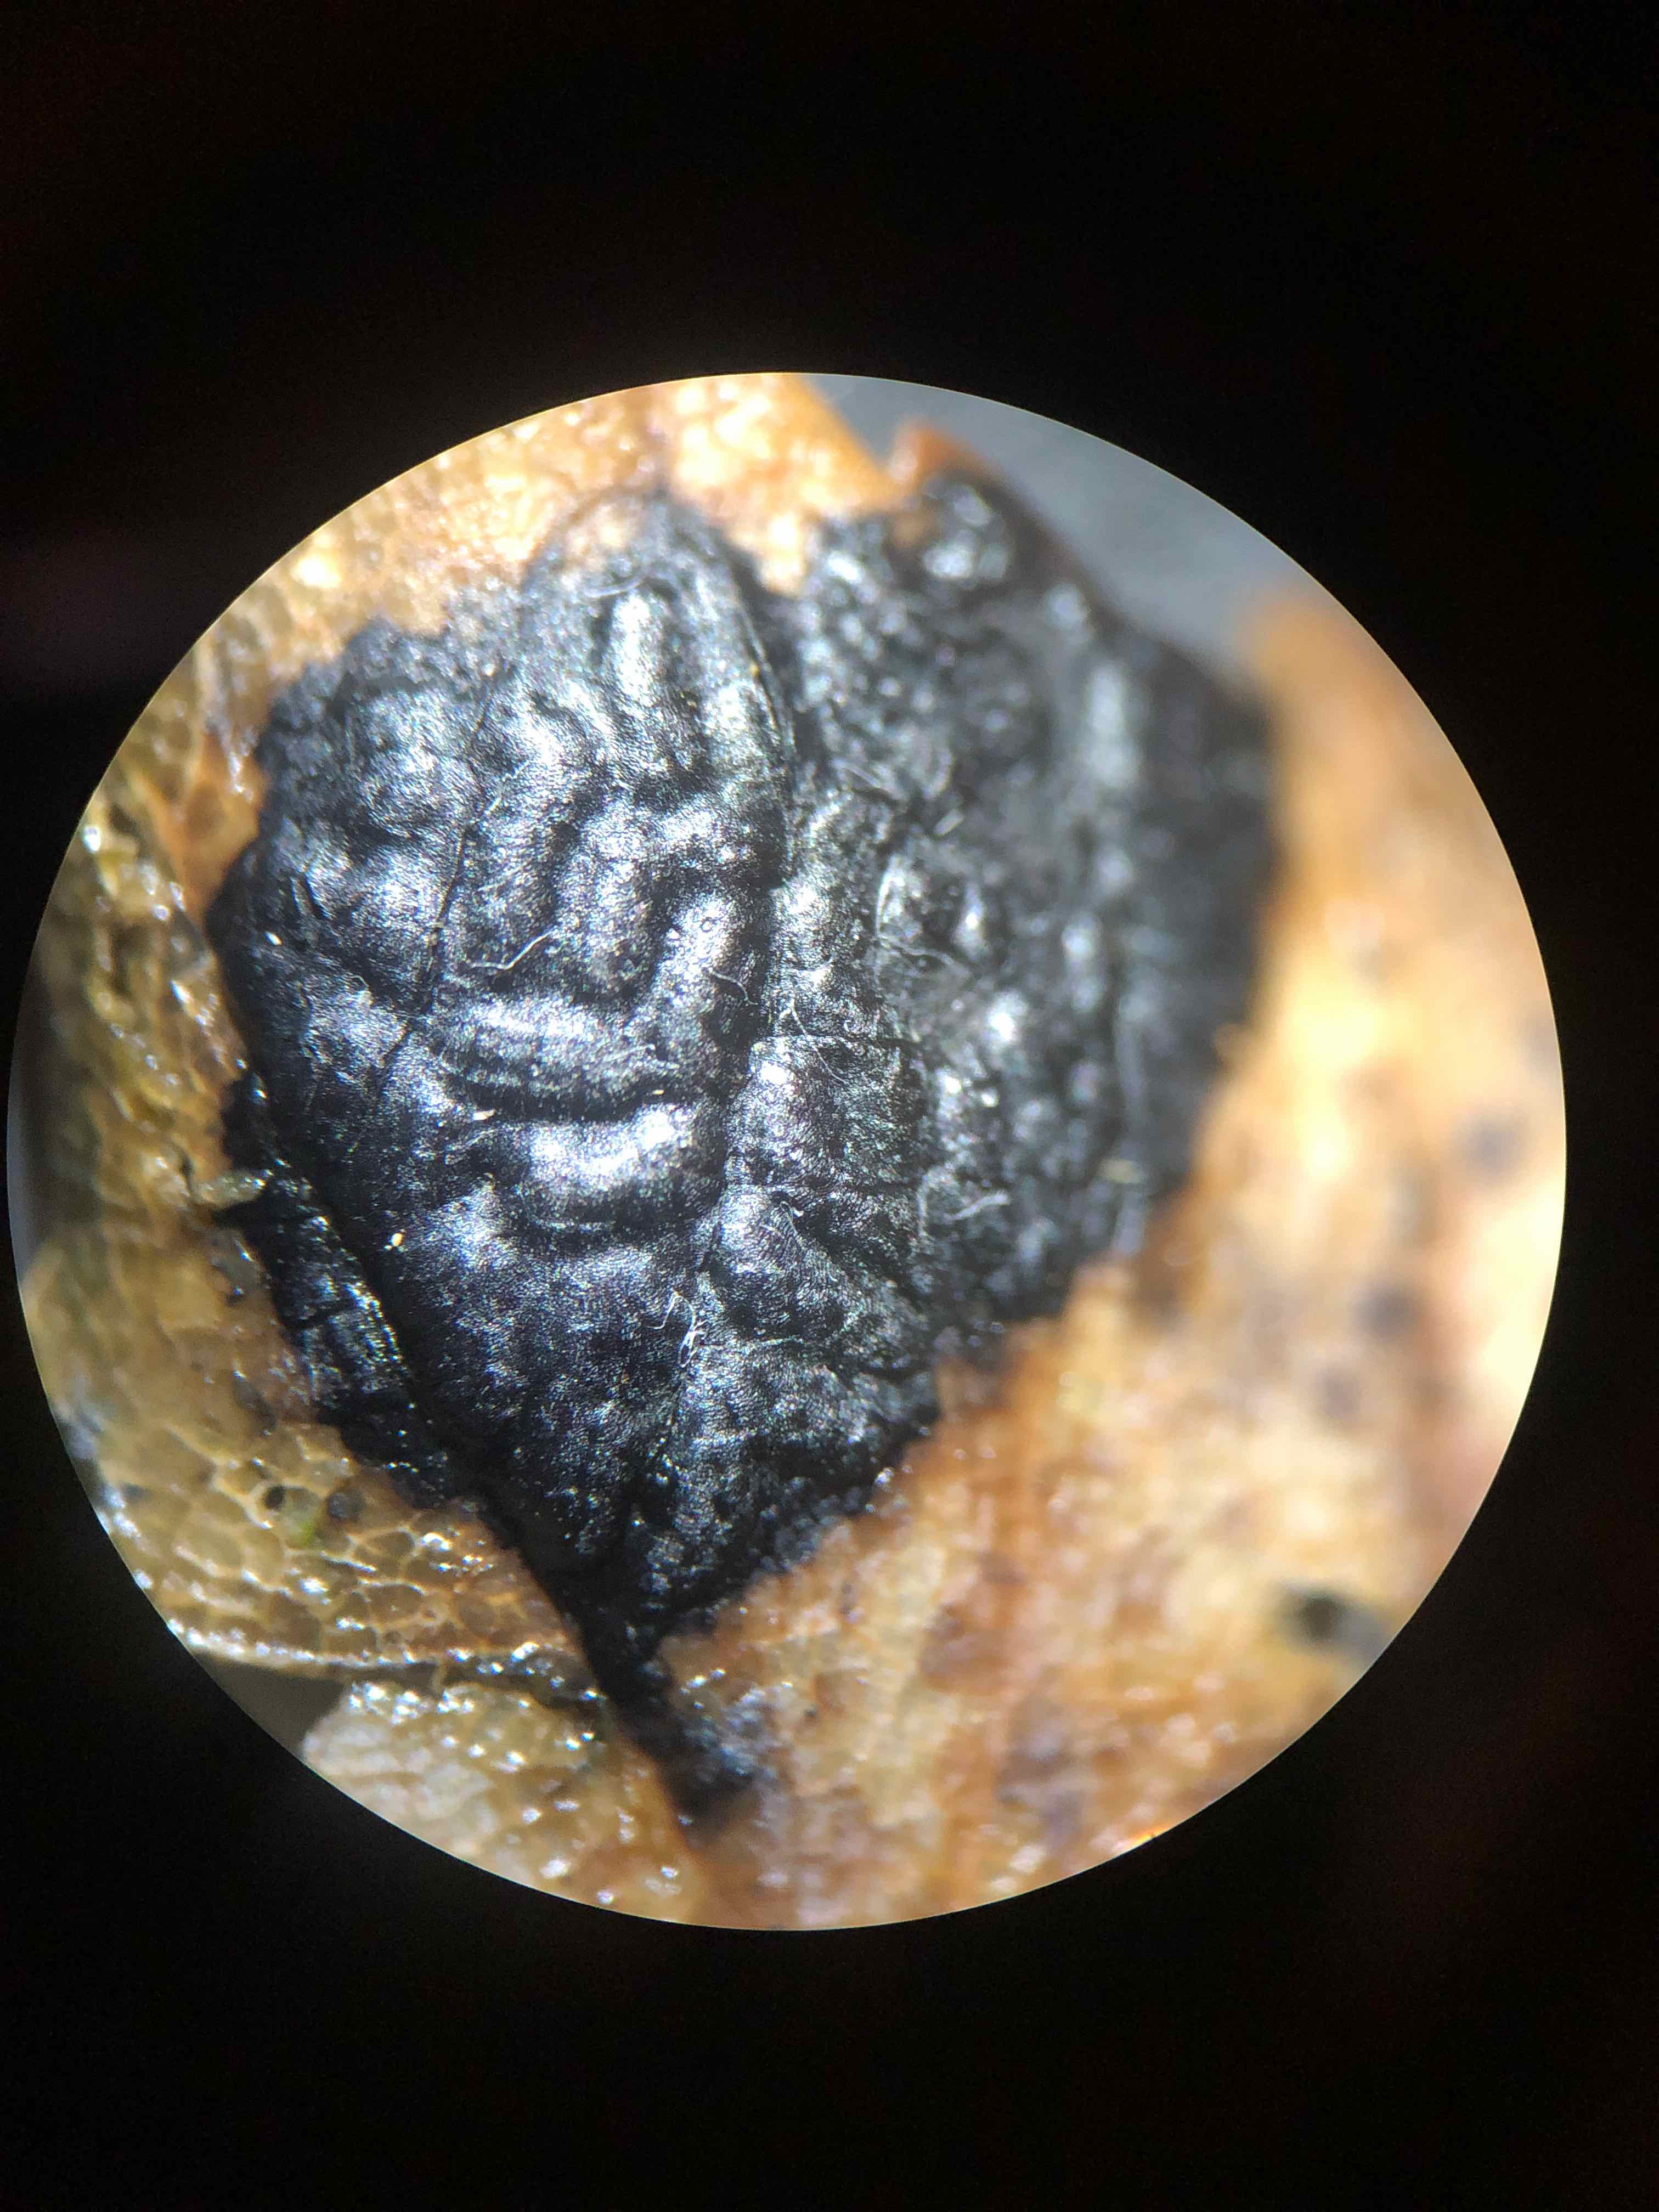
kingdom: Fungi
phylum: Ascomycota
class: Leotiomycetes
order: Rhytismatales
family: Rhytismataceae
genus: Rhytisma
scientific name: Rhytisma acerinum
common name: ahorn-rynkeplet
